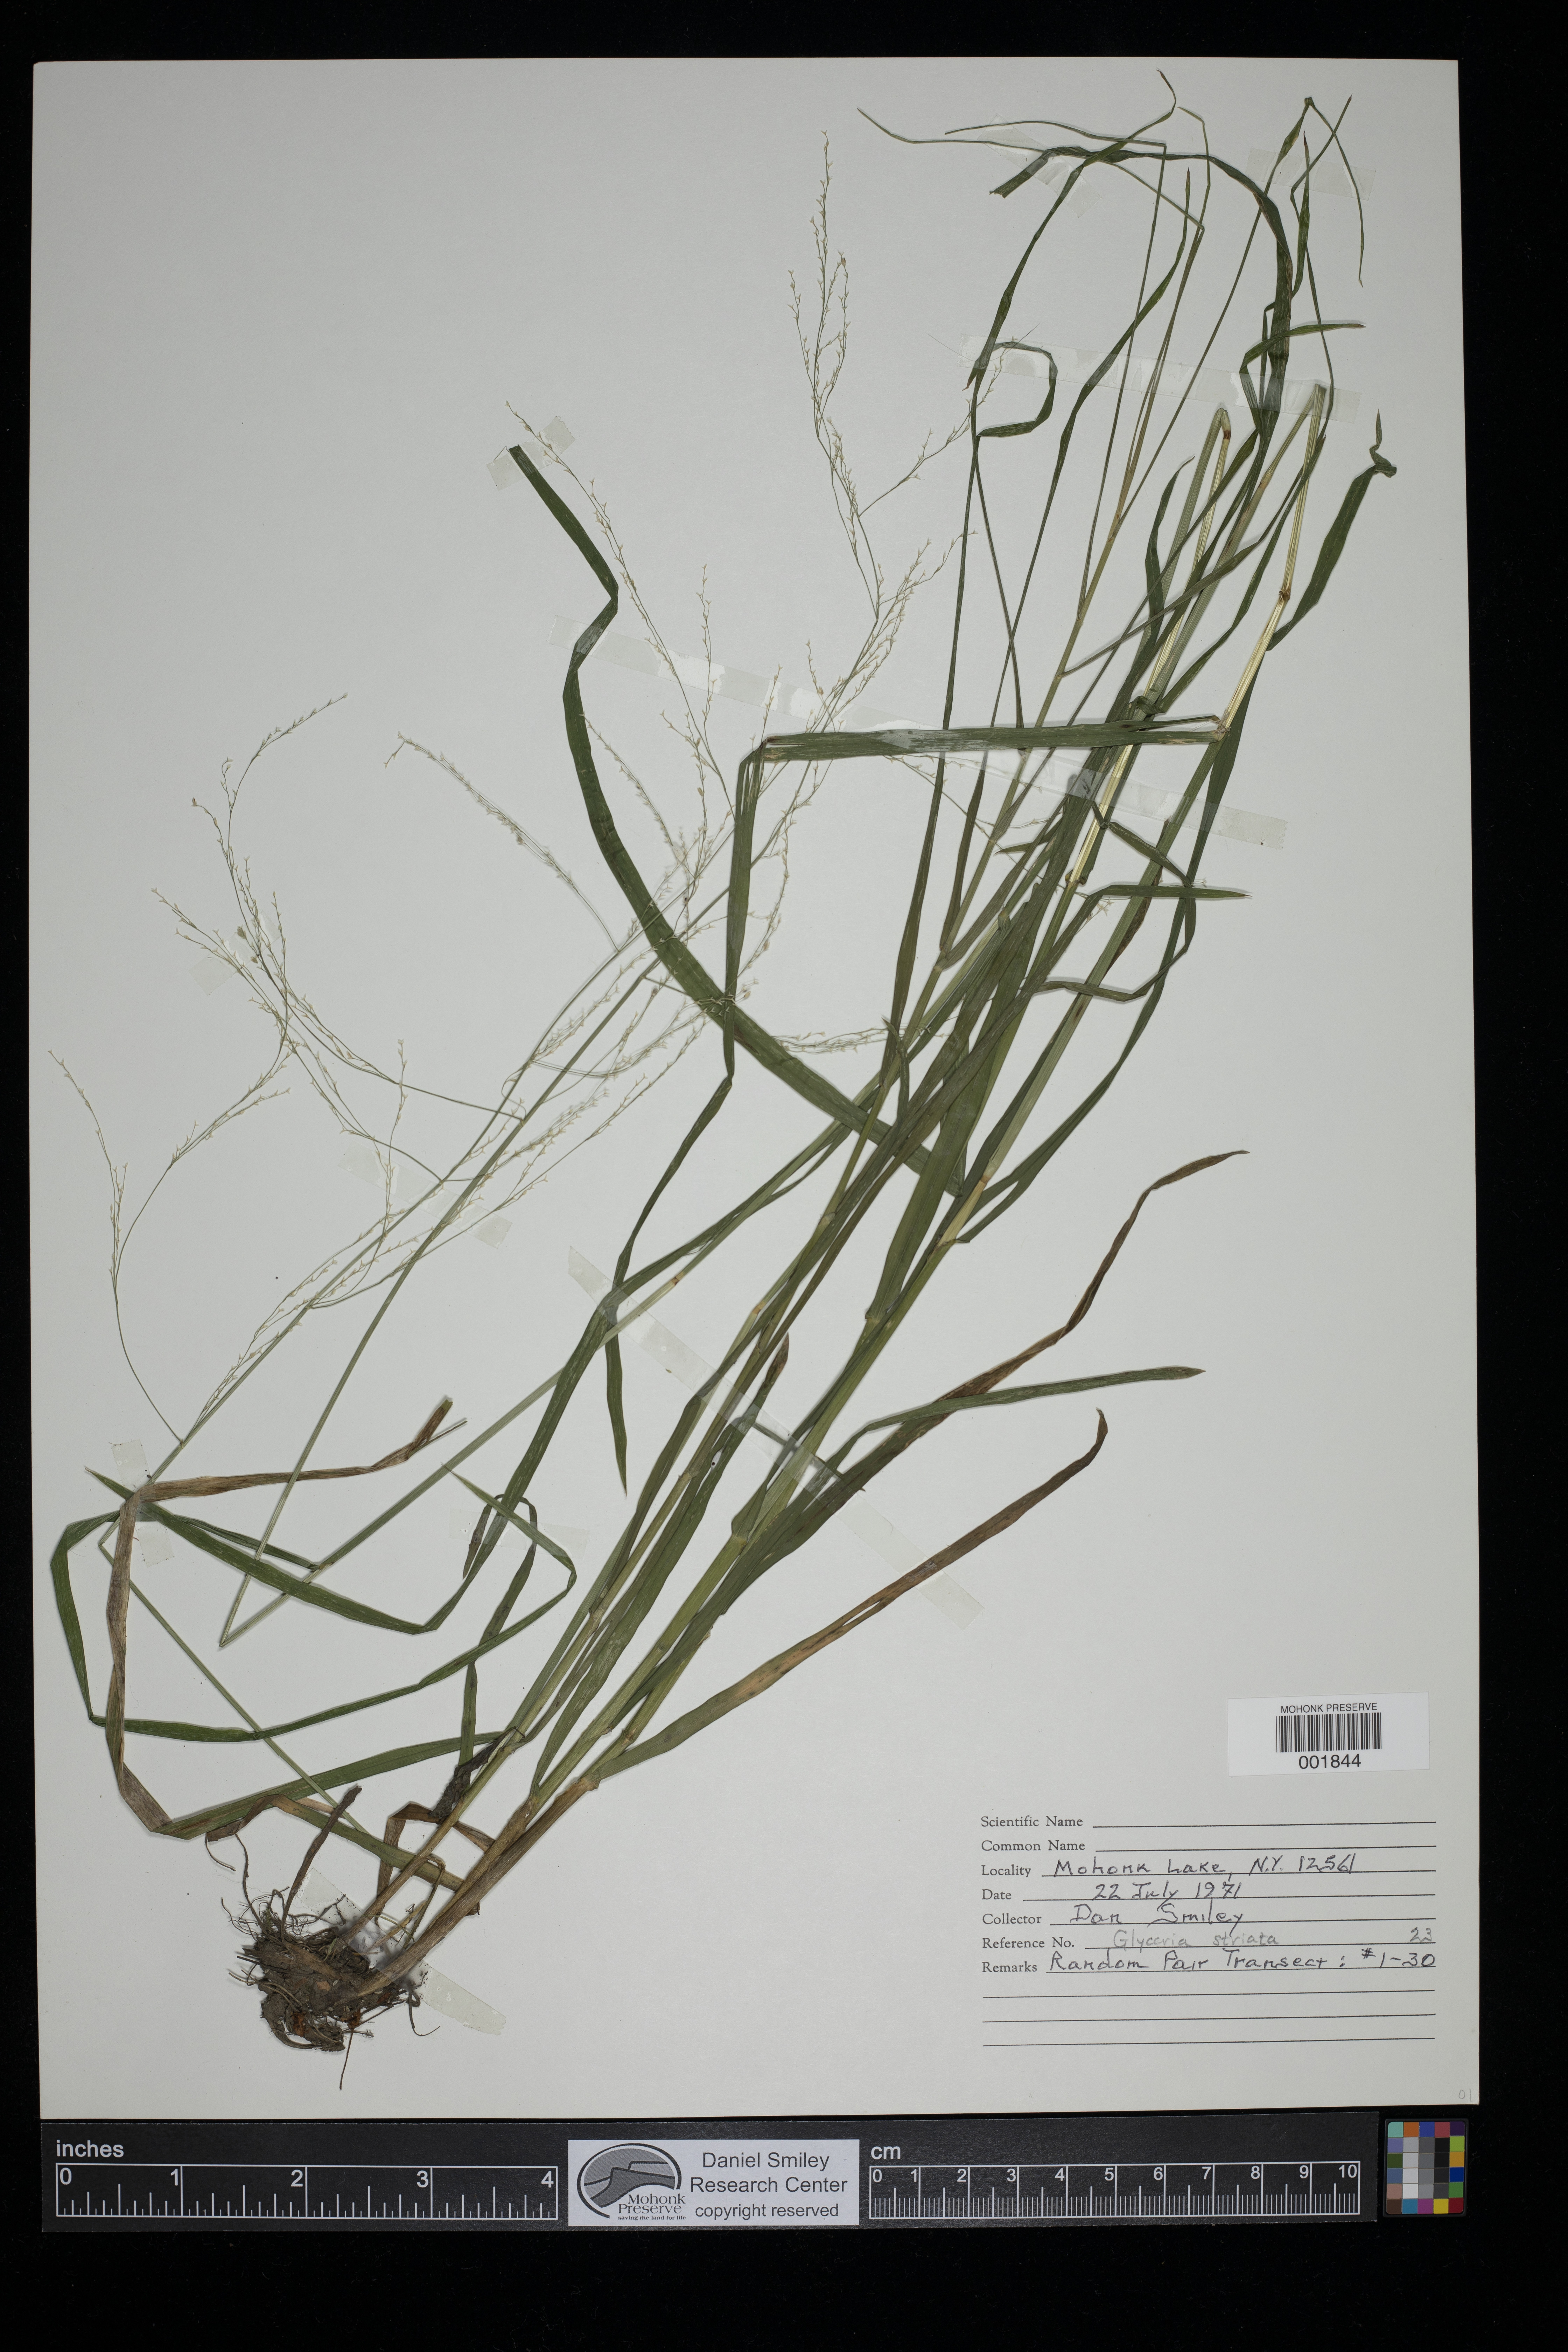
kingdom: Plantae
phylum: Tracheophyta
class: Liliopsida
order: Poales
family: Poaceae
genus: Glyceria
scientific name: Glyceria striata
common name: Fowl manna grass
